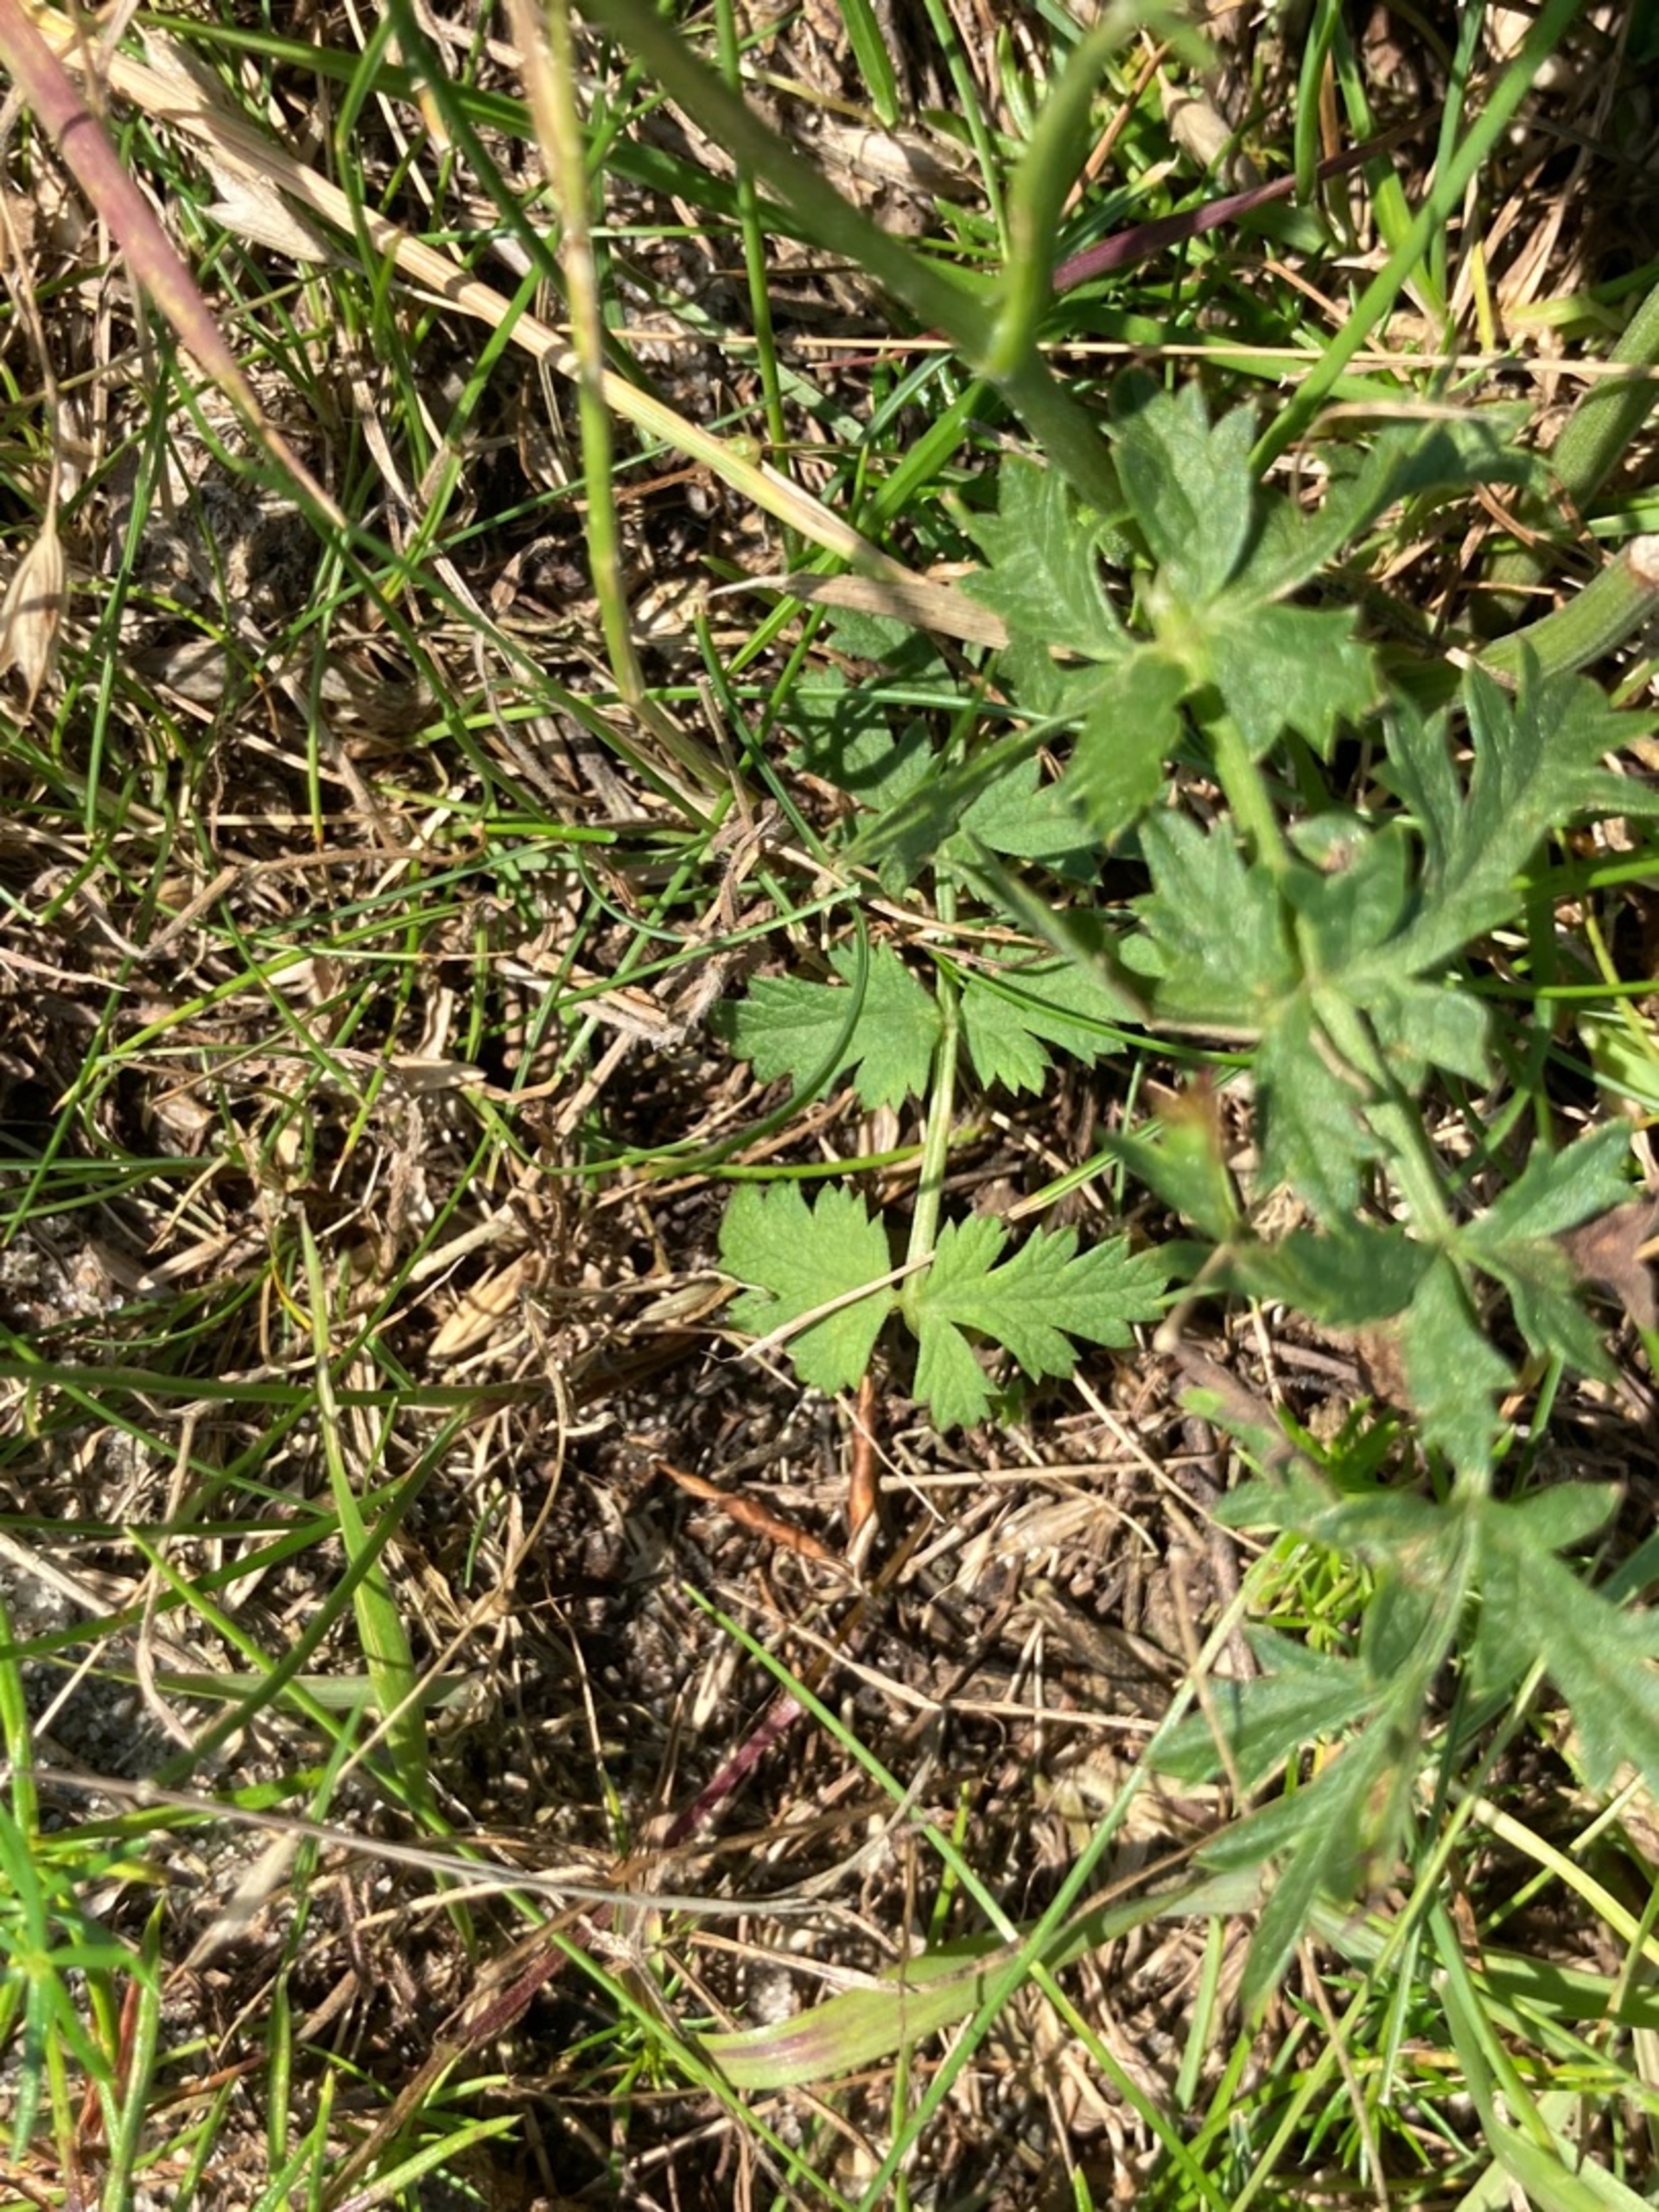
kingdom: Plantae
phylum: Tracheophyta
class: Magnoliopsida
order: Apiales
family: Apiaceae
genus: Pimpinella
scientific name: Pimpinella saxifraga
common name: Almindelig pimpinelle
